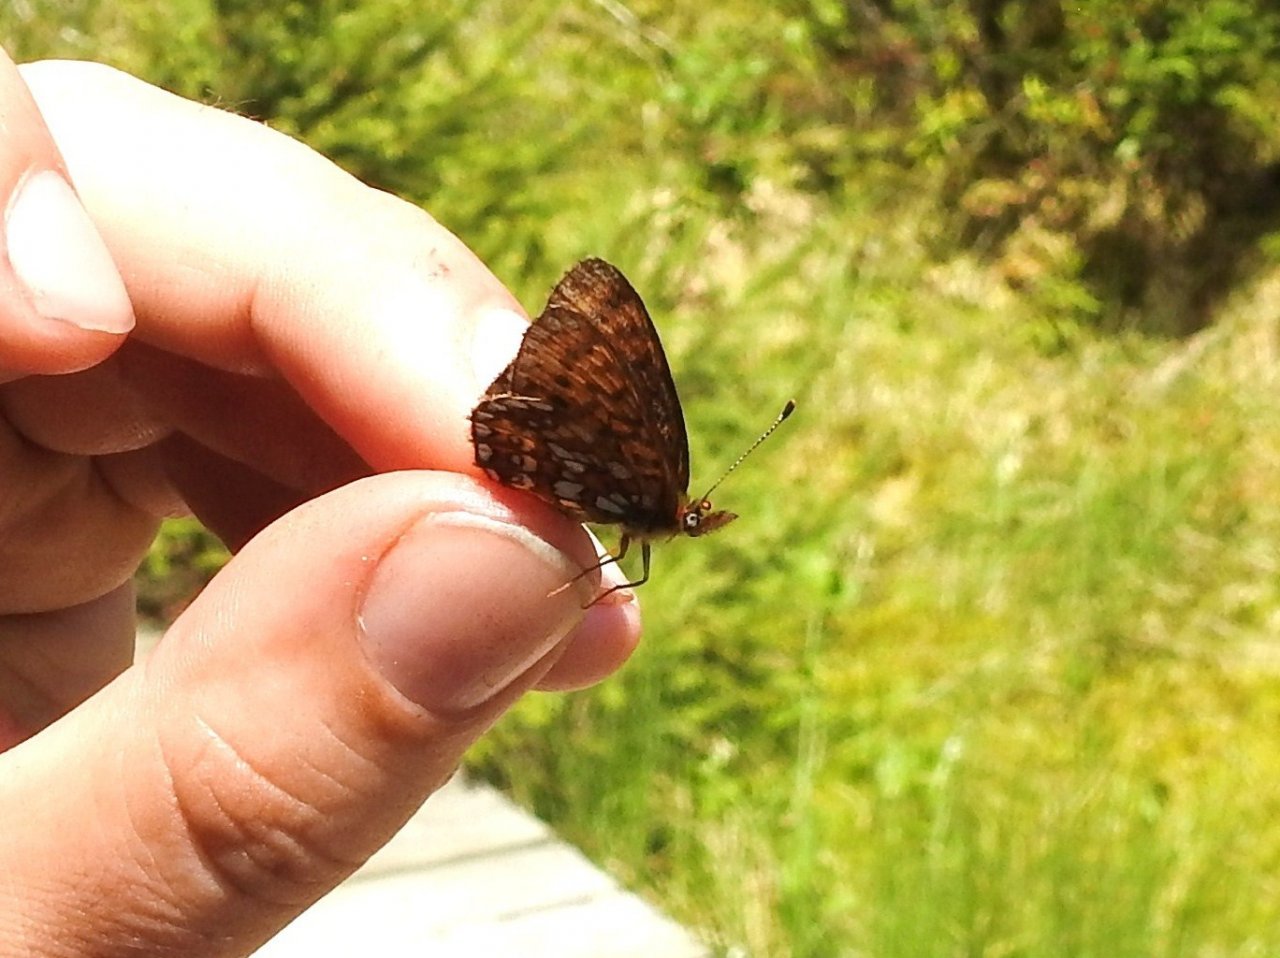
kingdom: Animalia
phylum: Arthropoda
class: Insecta
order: Lepidoptera
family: Nymphalidae
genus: Boloria
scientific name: Boloria eunomia
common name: Bog Fritillary
